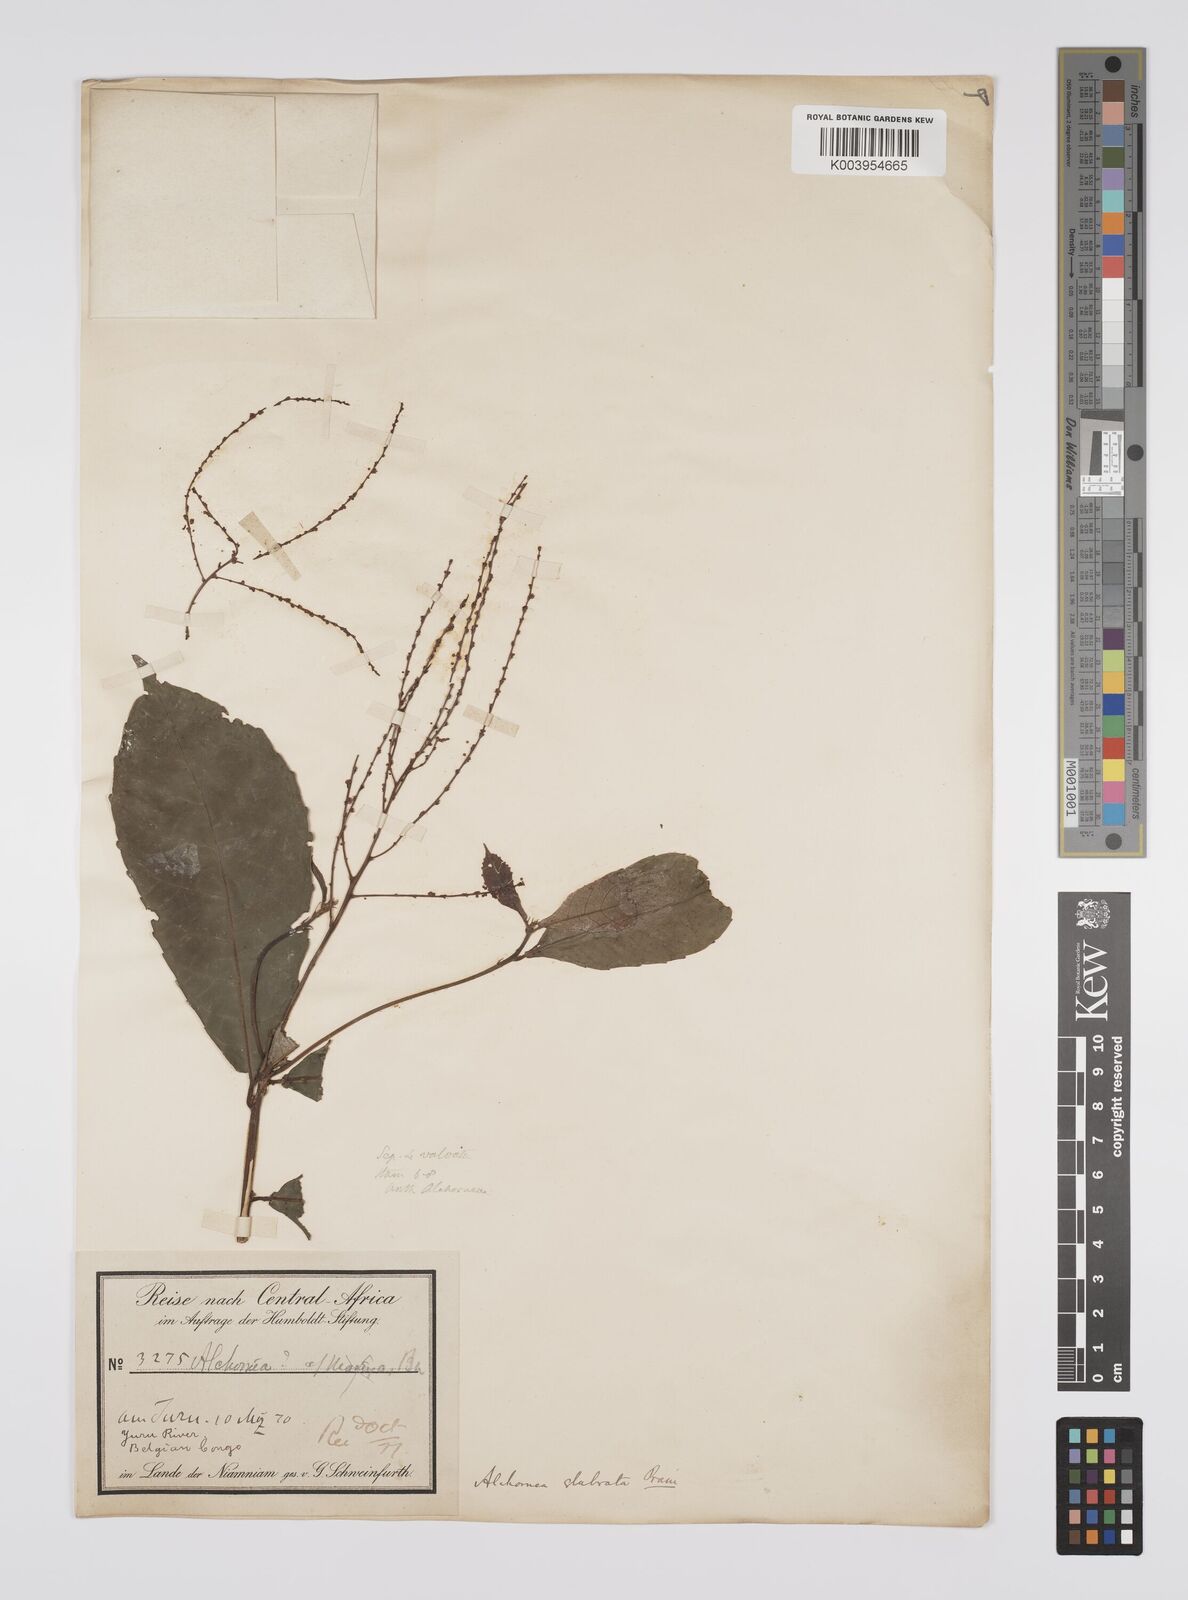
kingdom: Plantae
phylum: Tracheophyta
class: Magnoliopsida
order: Malpighiales
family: Euphorbiaceae
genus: Alchornea
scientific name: Alchornea hirtella
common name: Forest bead-string
